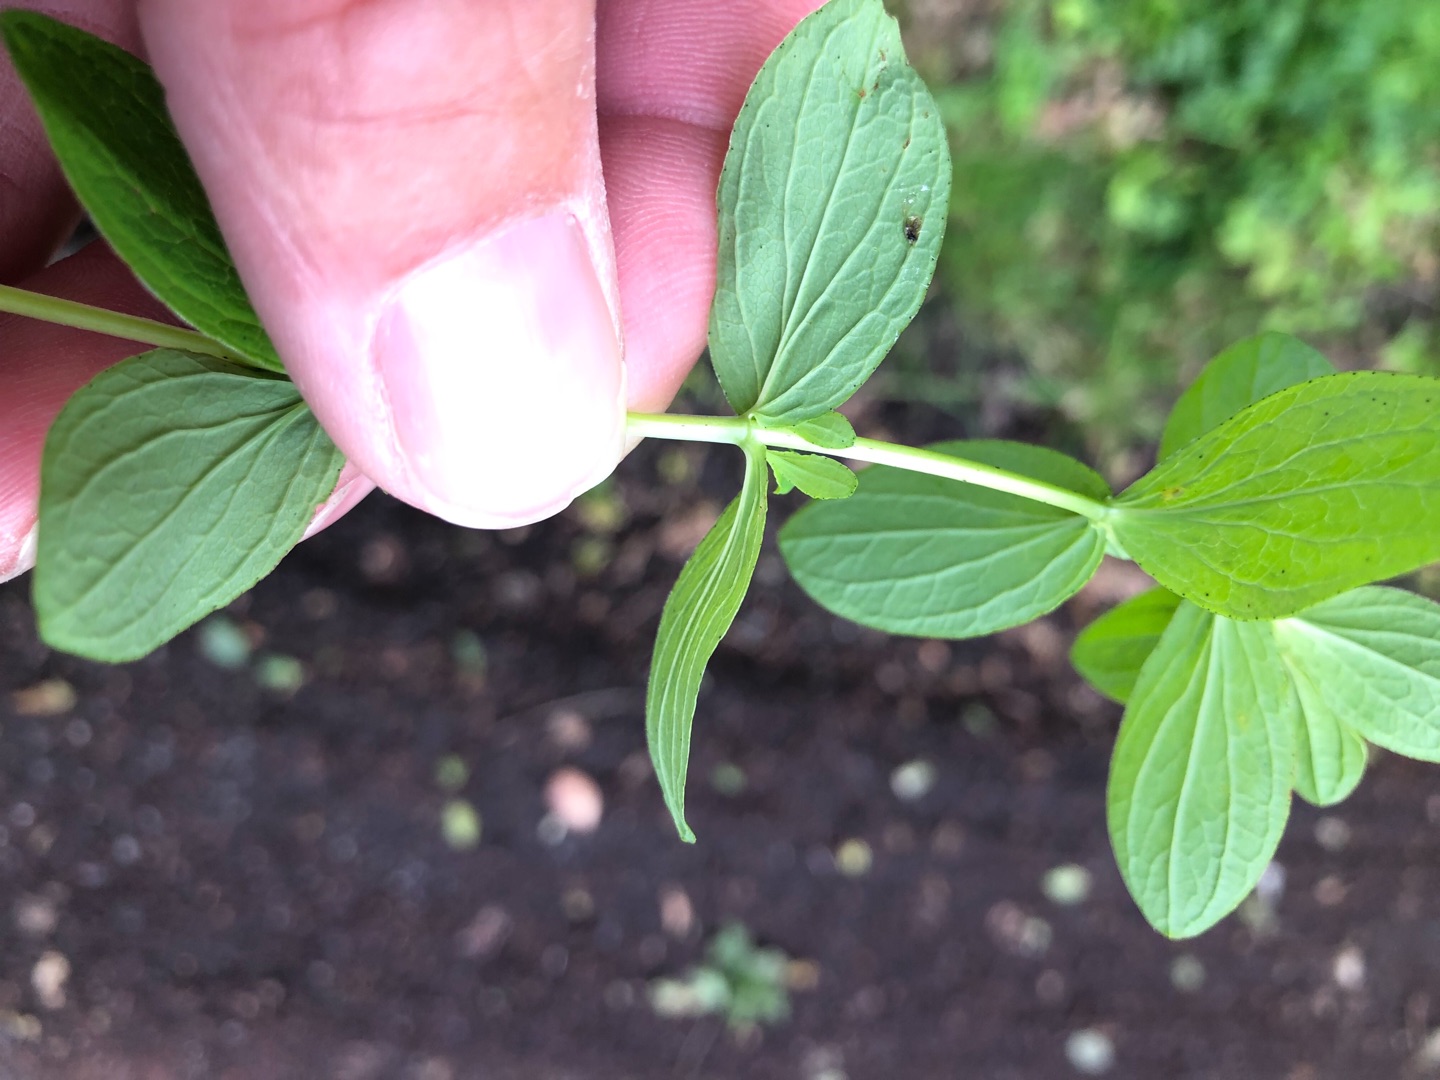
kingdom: Plantae
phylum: Tracheophyta
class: Magnoliopsida
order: Malpighiales
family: Hypericaceae
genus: Hypericum
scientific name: Hypericum maculatum
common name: Kantet perikon
